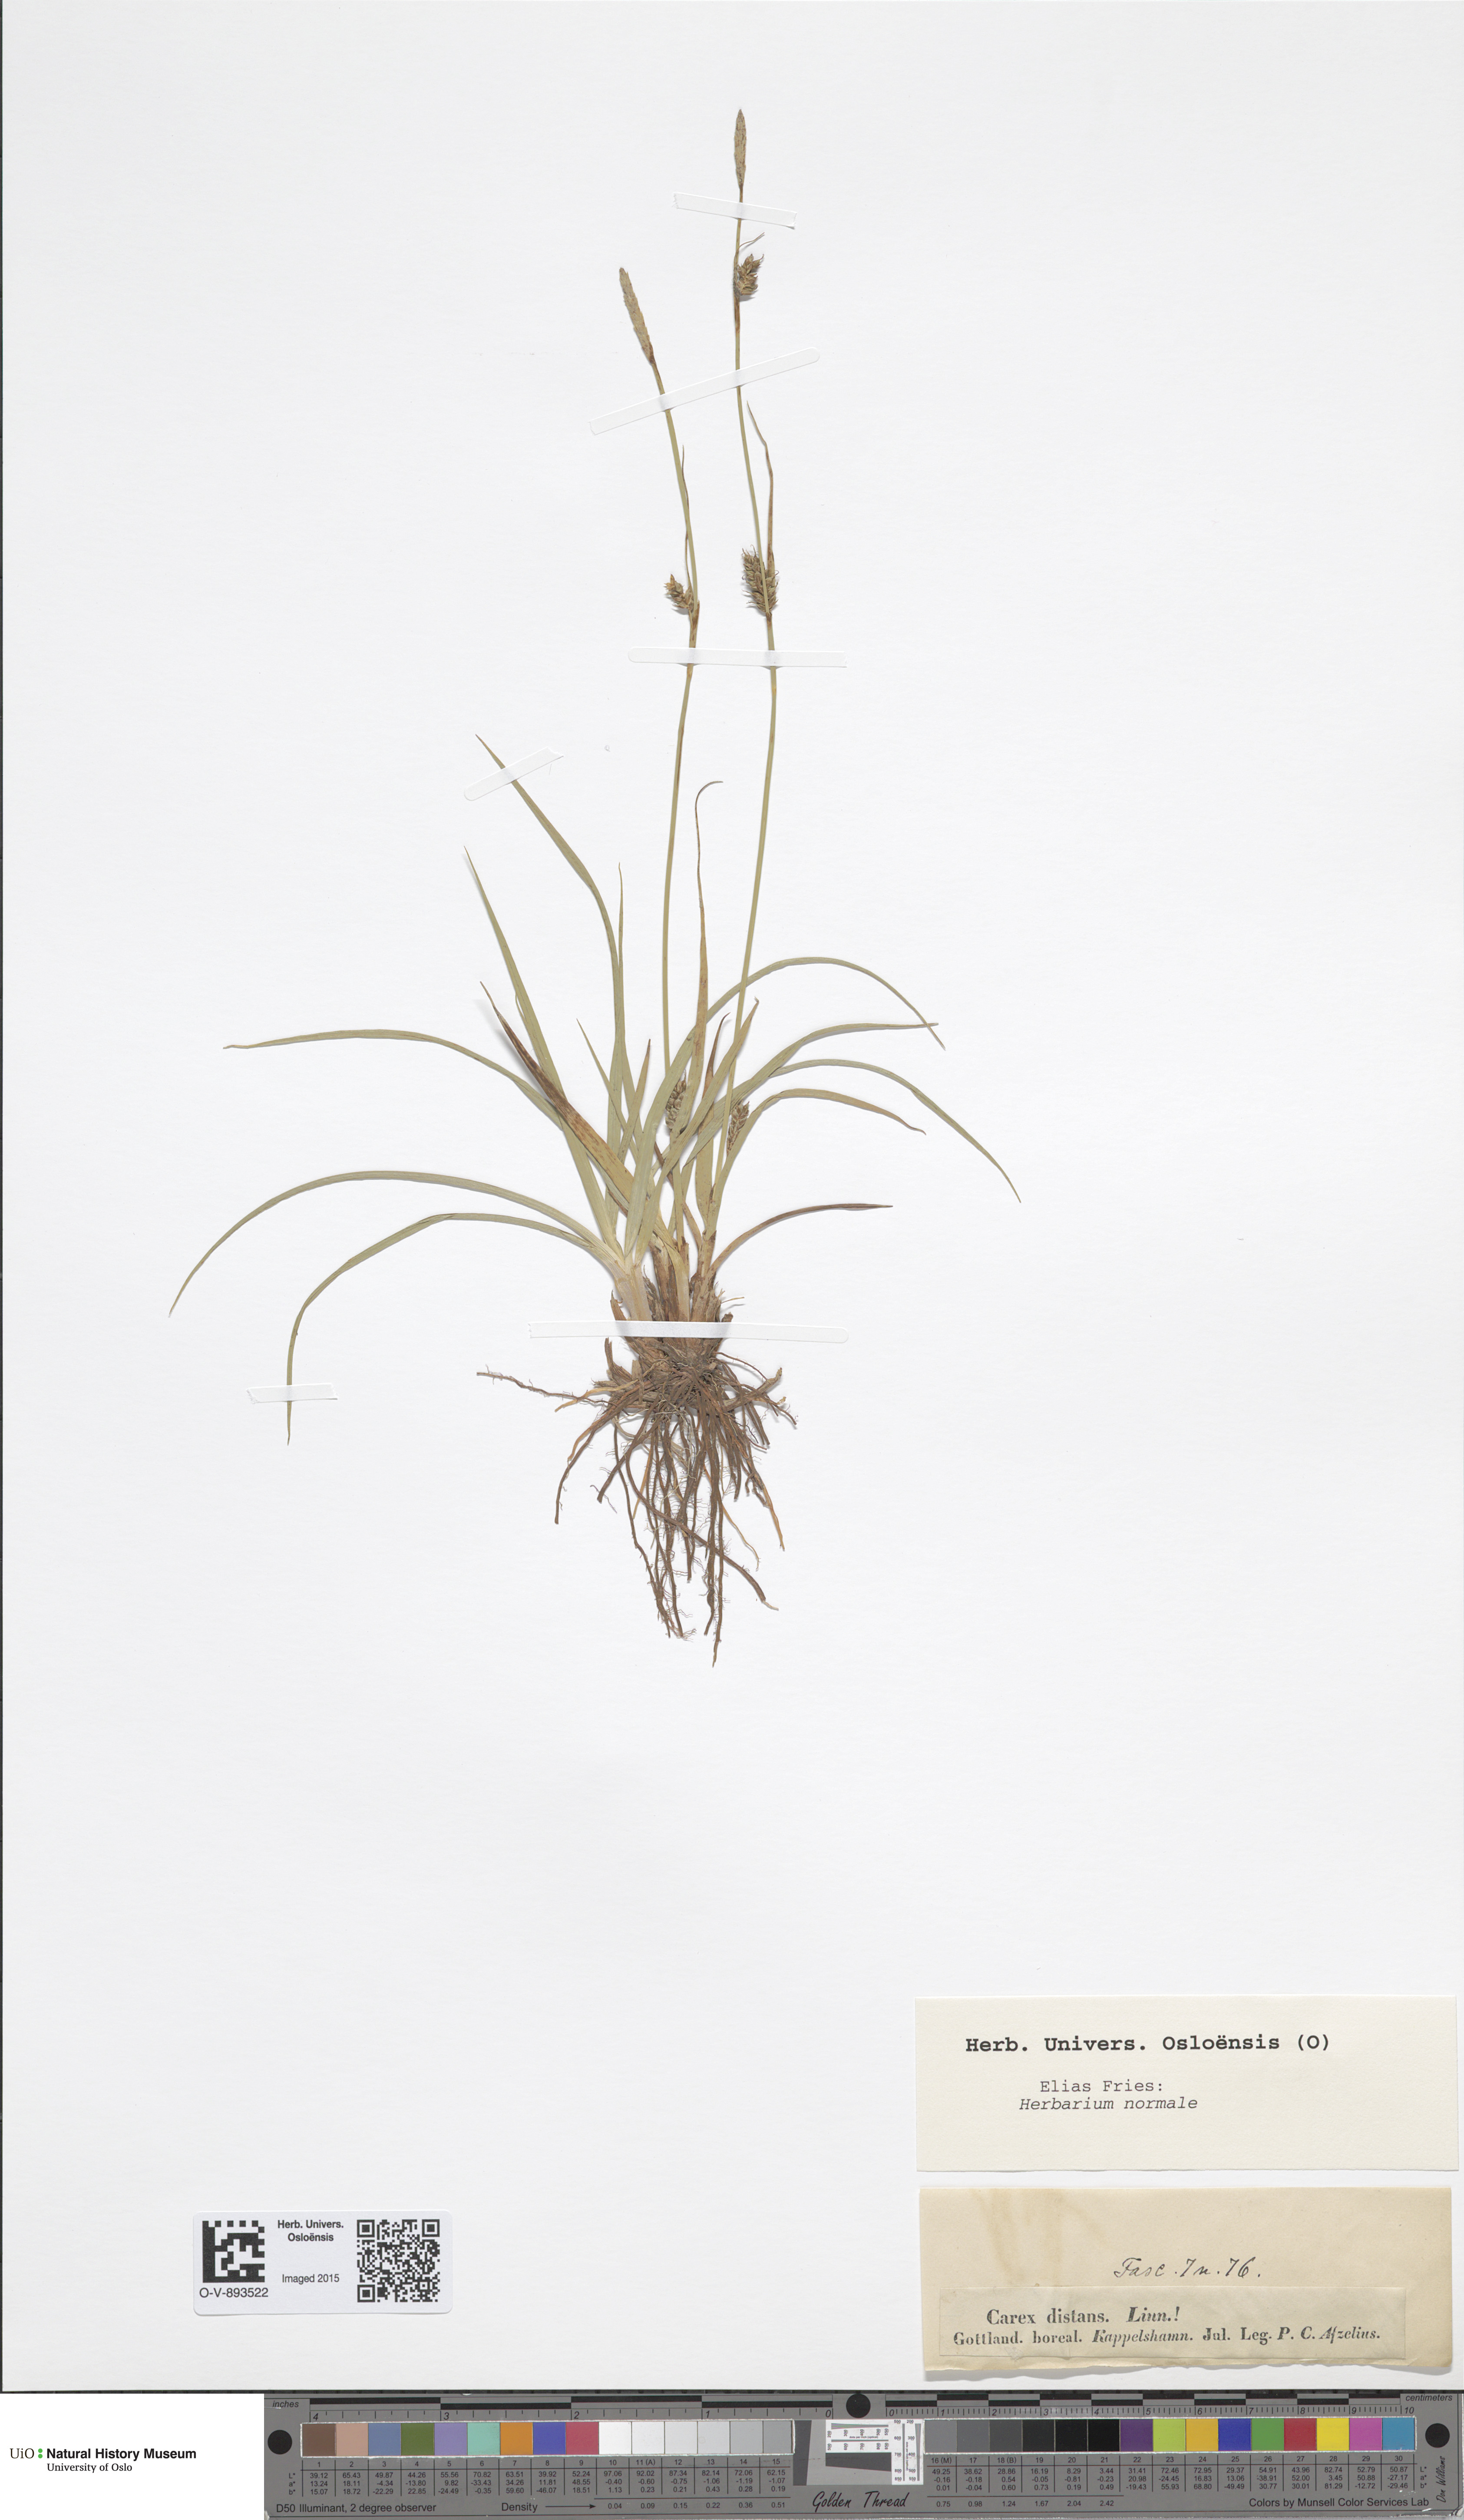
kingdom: Plantae
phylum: Tracheophyta
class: Liliopsida
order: Poales
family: Cyperaceae
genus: Carex
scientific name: Carex distans
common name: Distant sedge
